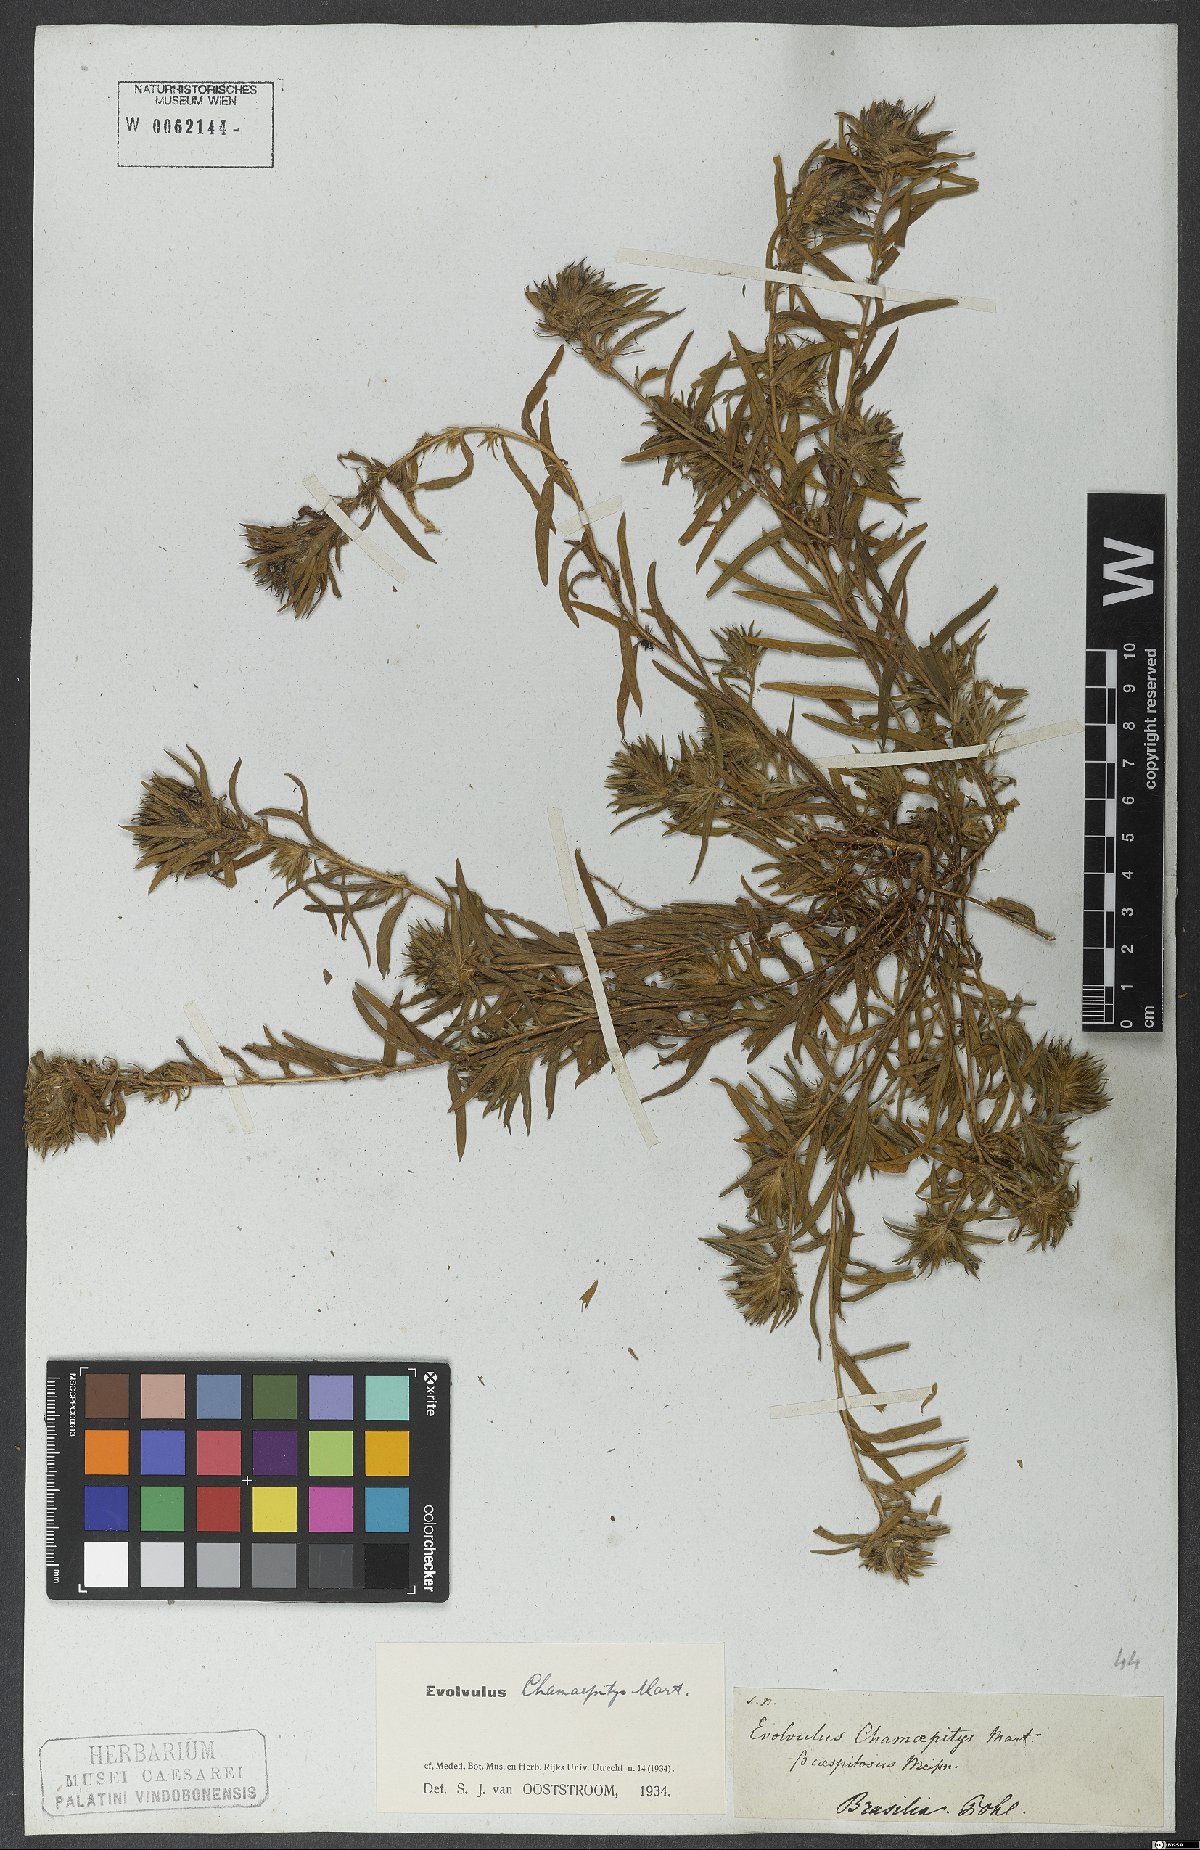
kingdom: Plantae
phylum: Tracheophyta
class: Magnoliopsida
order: Solanales
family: Convolvulaceae
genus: Evolvulus
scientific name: Evolvulus chamaepitys
